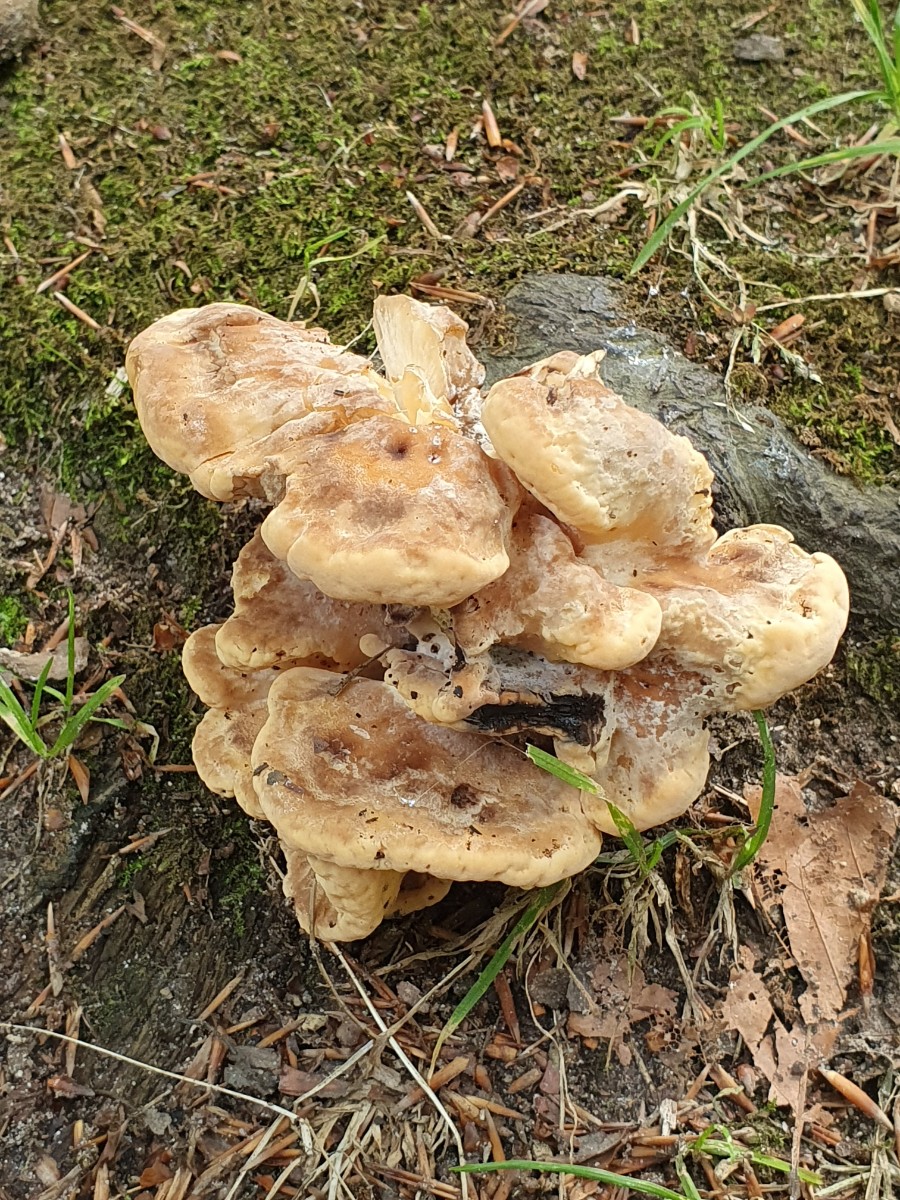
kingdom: Fungi
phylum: Basidiomycota
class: Agaricomycetes
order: Polyporales
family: Meripilaceae
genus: Meripilus
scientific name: Meripilus giganteus
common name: kæmpeporesvamp
